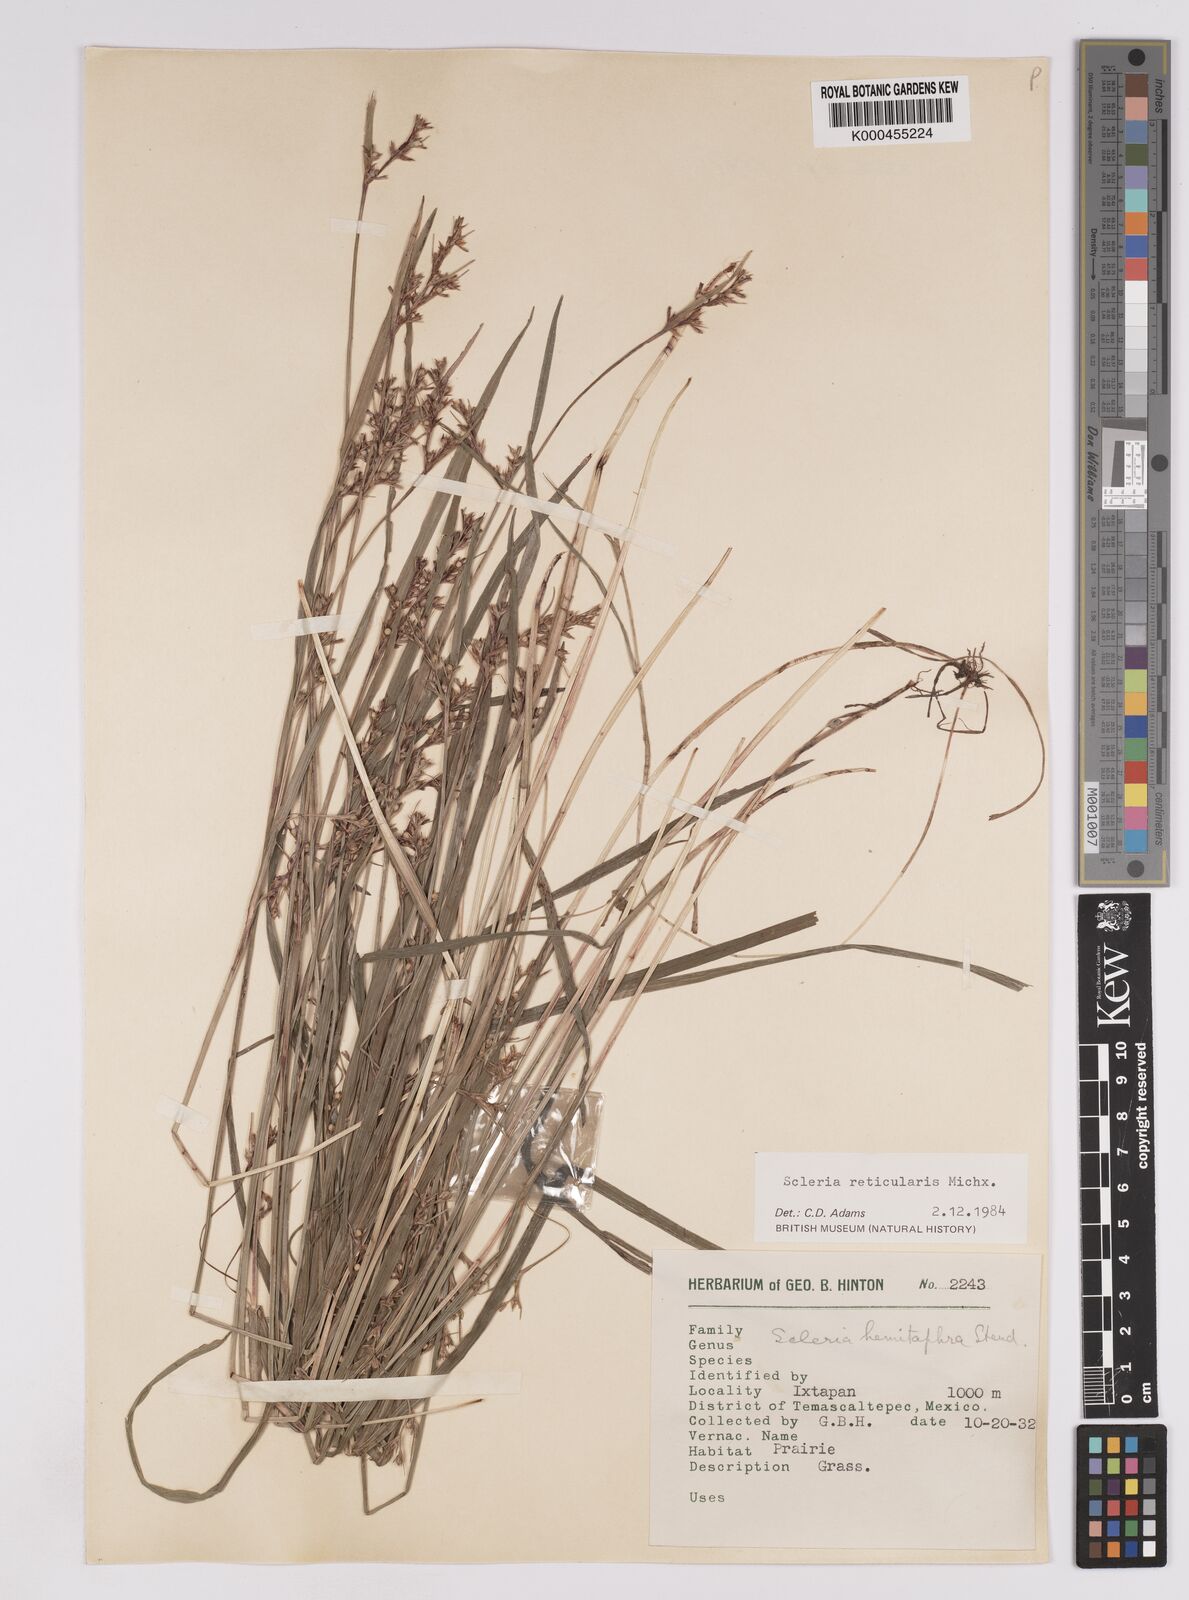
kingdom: Plantae
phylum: Tracheophyta
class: Liliopsida
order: Poales
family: Cyperaceae
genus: Scleria
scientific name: Scleria
